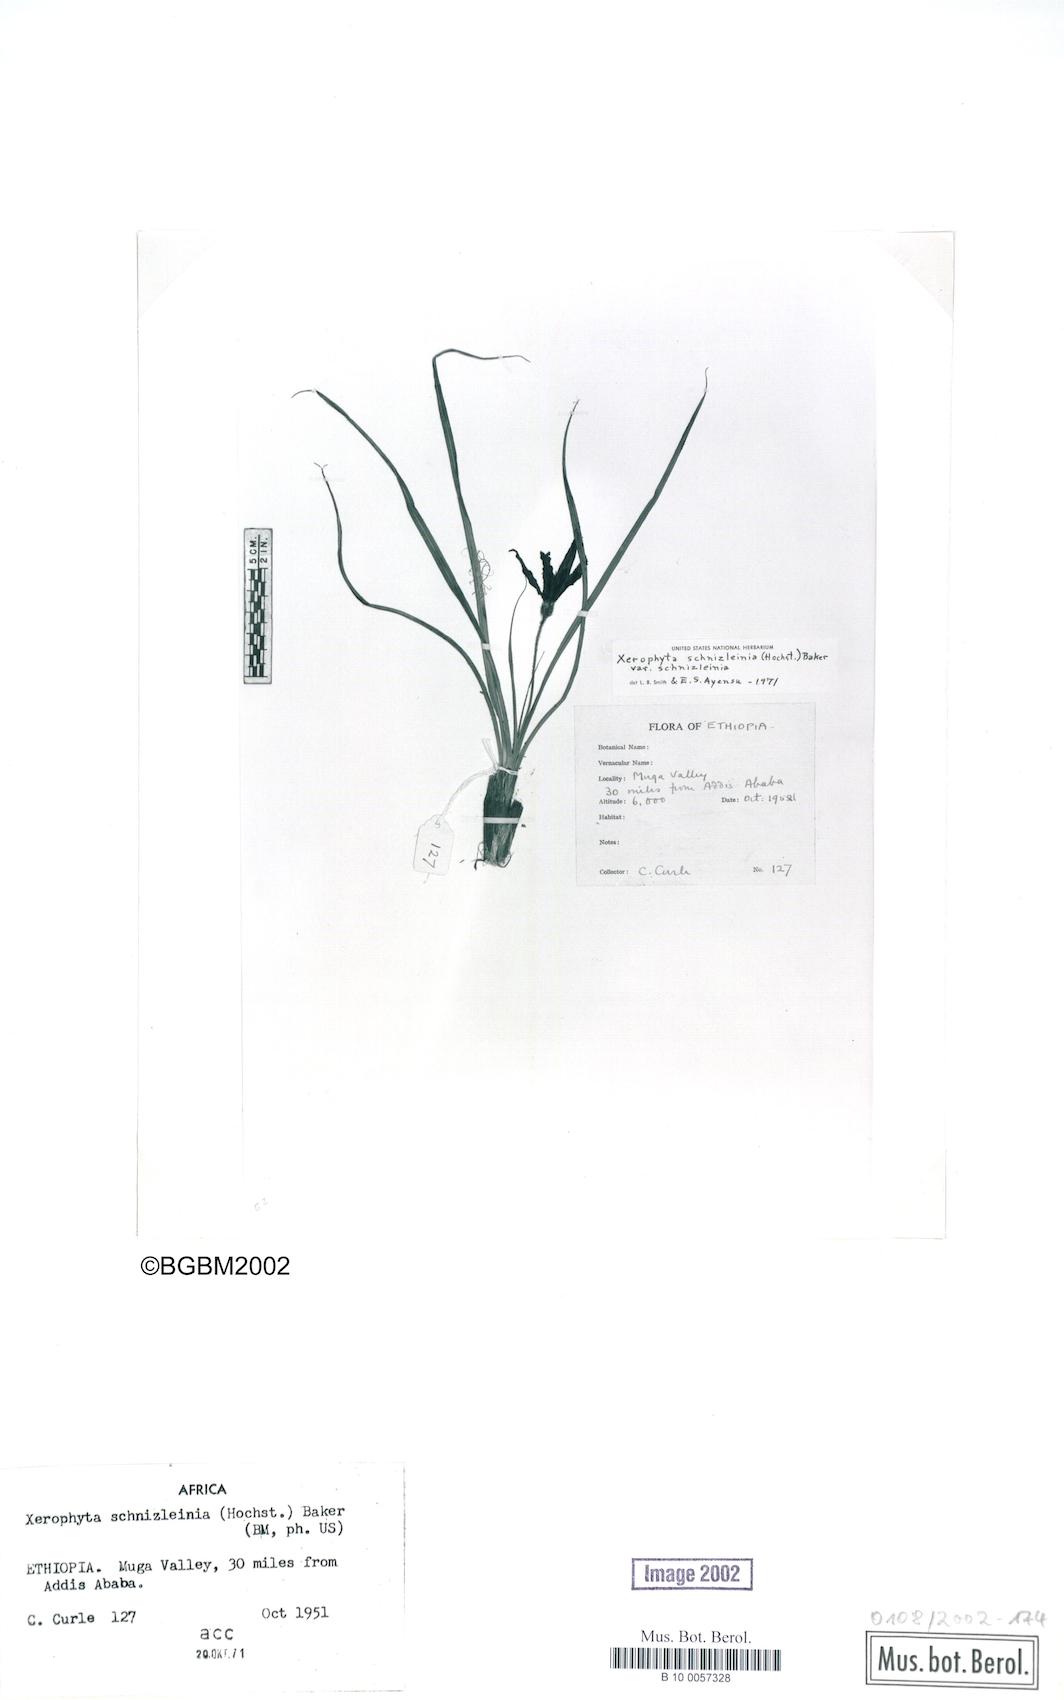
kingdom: Plantae
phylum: Tracheophyta
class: Liliopsida
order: Pandanales
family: Velloziaceae
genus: Xerophyta
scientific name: Xerophyta schnizleinia
